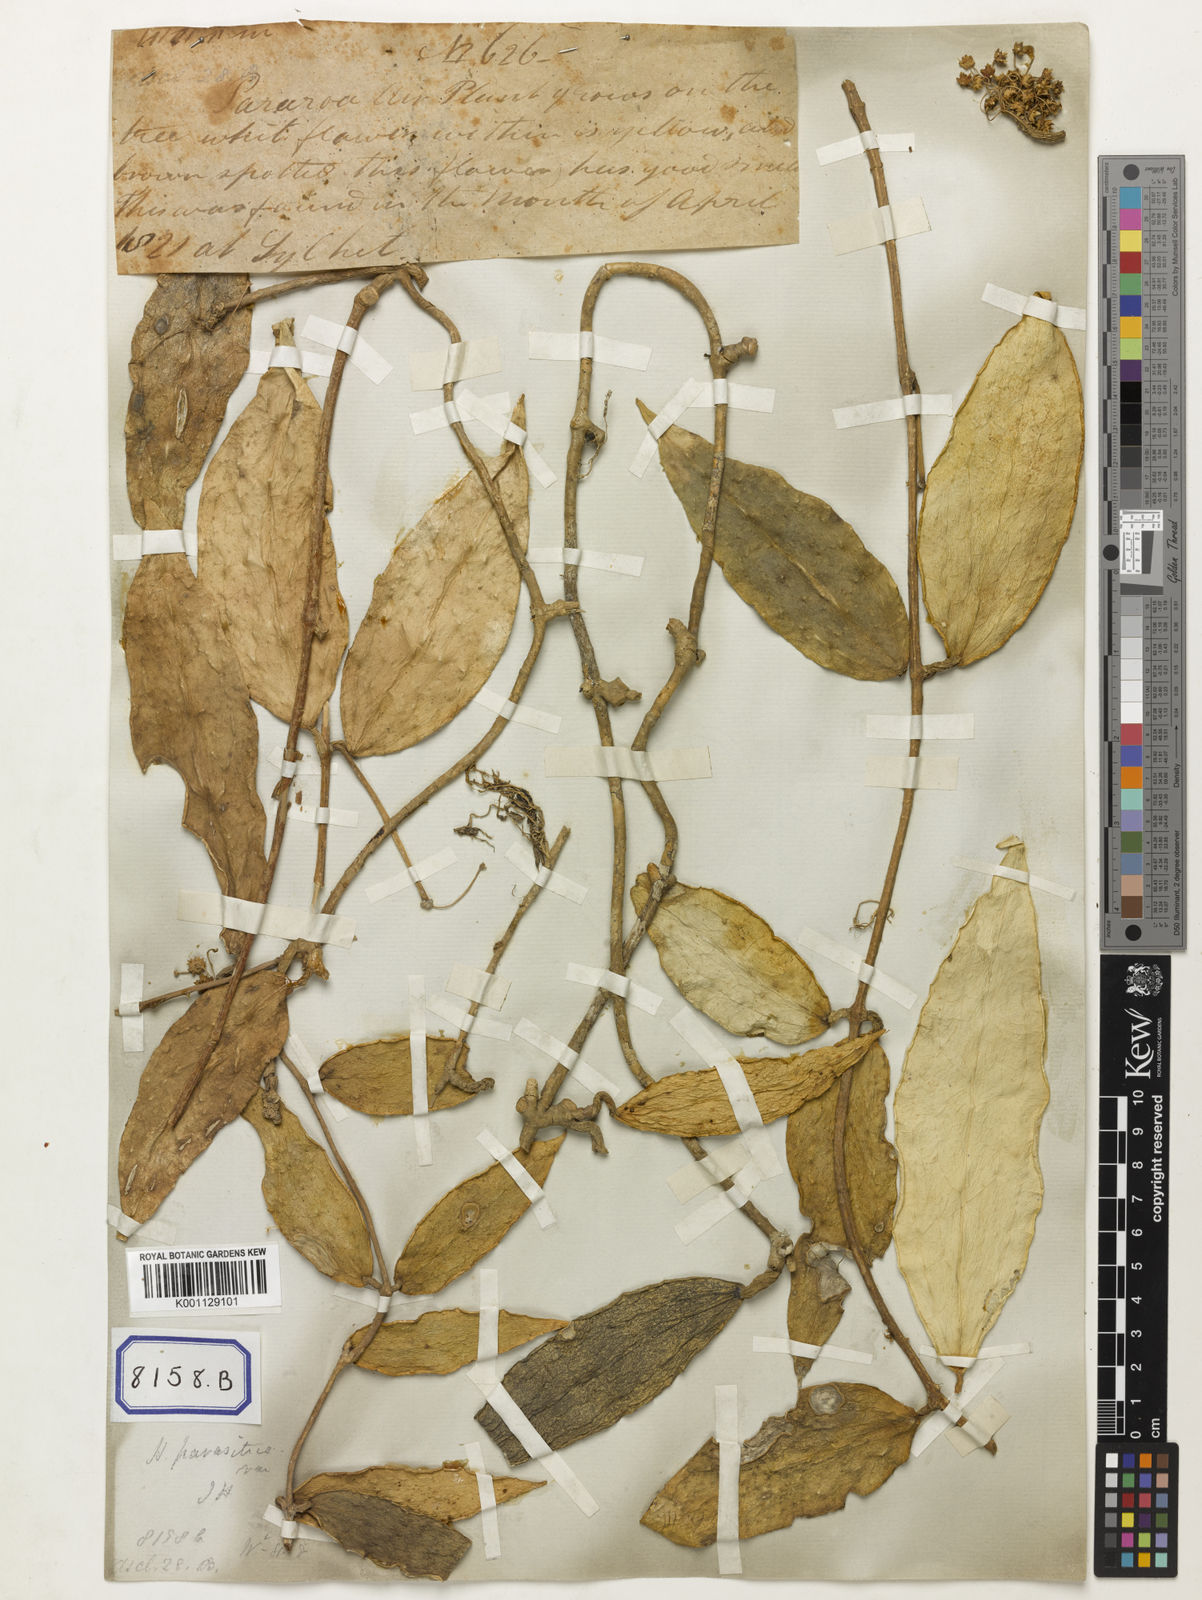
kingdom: Plantae
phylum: Tracheophyta
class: Magnoliopsida
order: Gentianales
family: Apocynaceae
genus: Hoya
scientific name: Hoya verticillata
